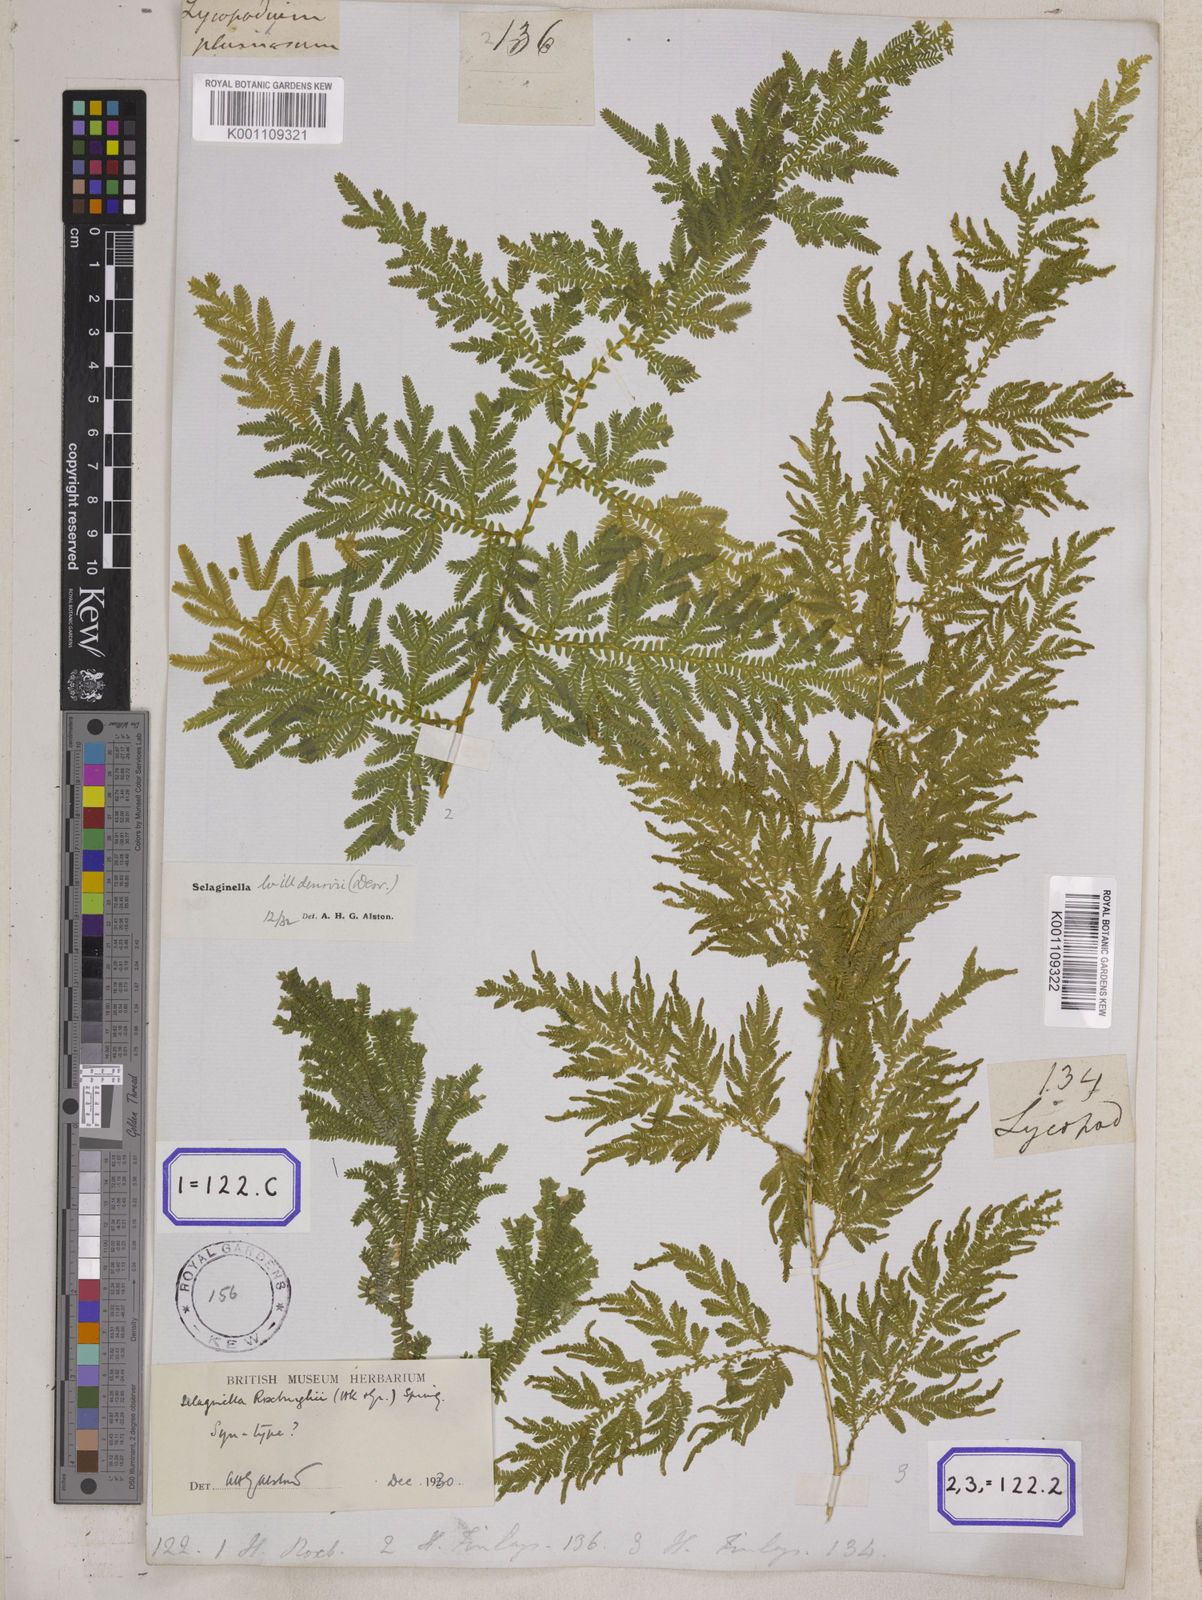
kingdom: Plantae
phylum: Tracheophyta
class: Lycopodiopsida
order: Selaginellales
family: Selaginellaceae
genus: Selaginella
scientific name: Selaginella willdenowii
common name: Willdenow's spikemoss
